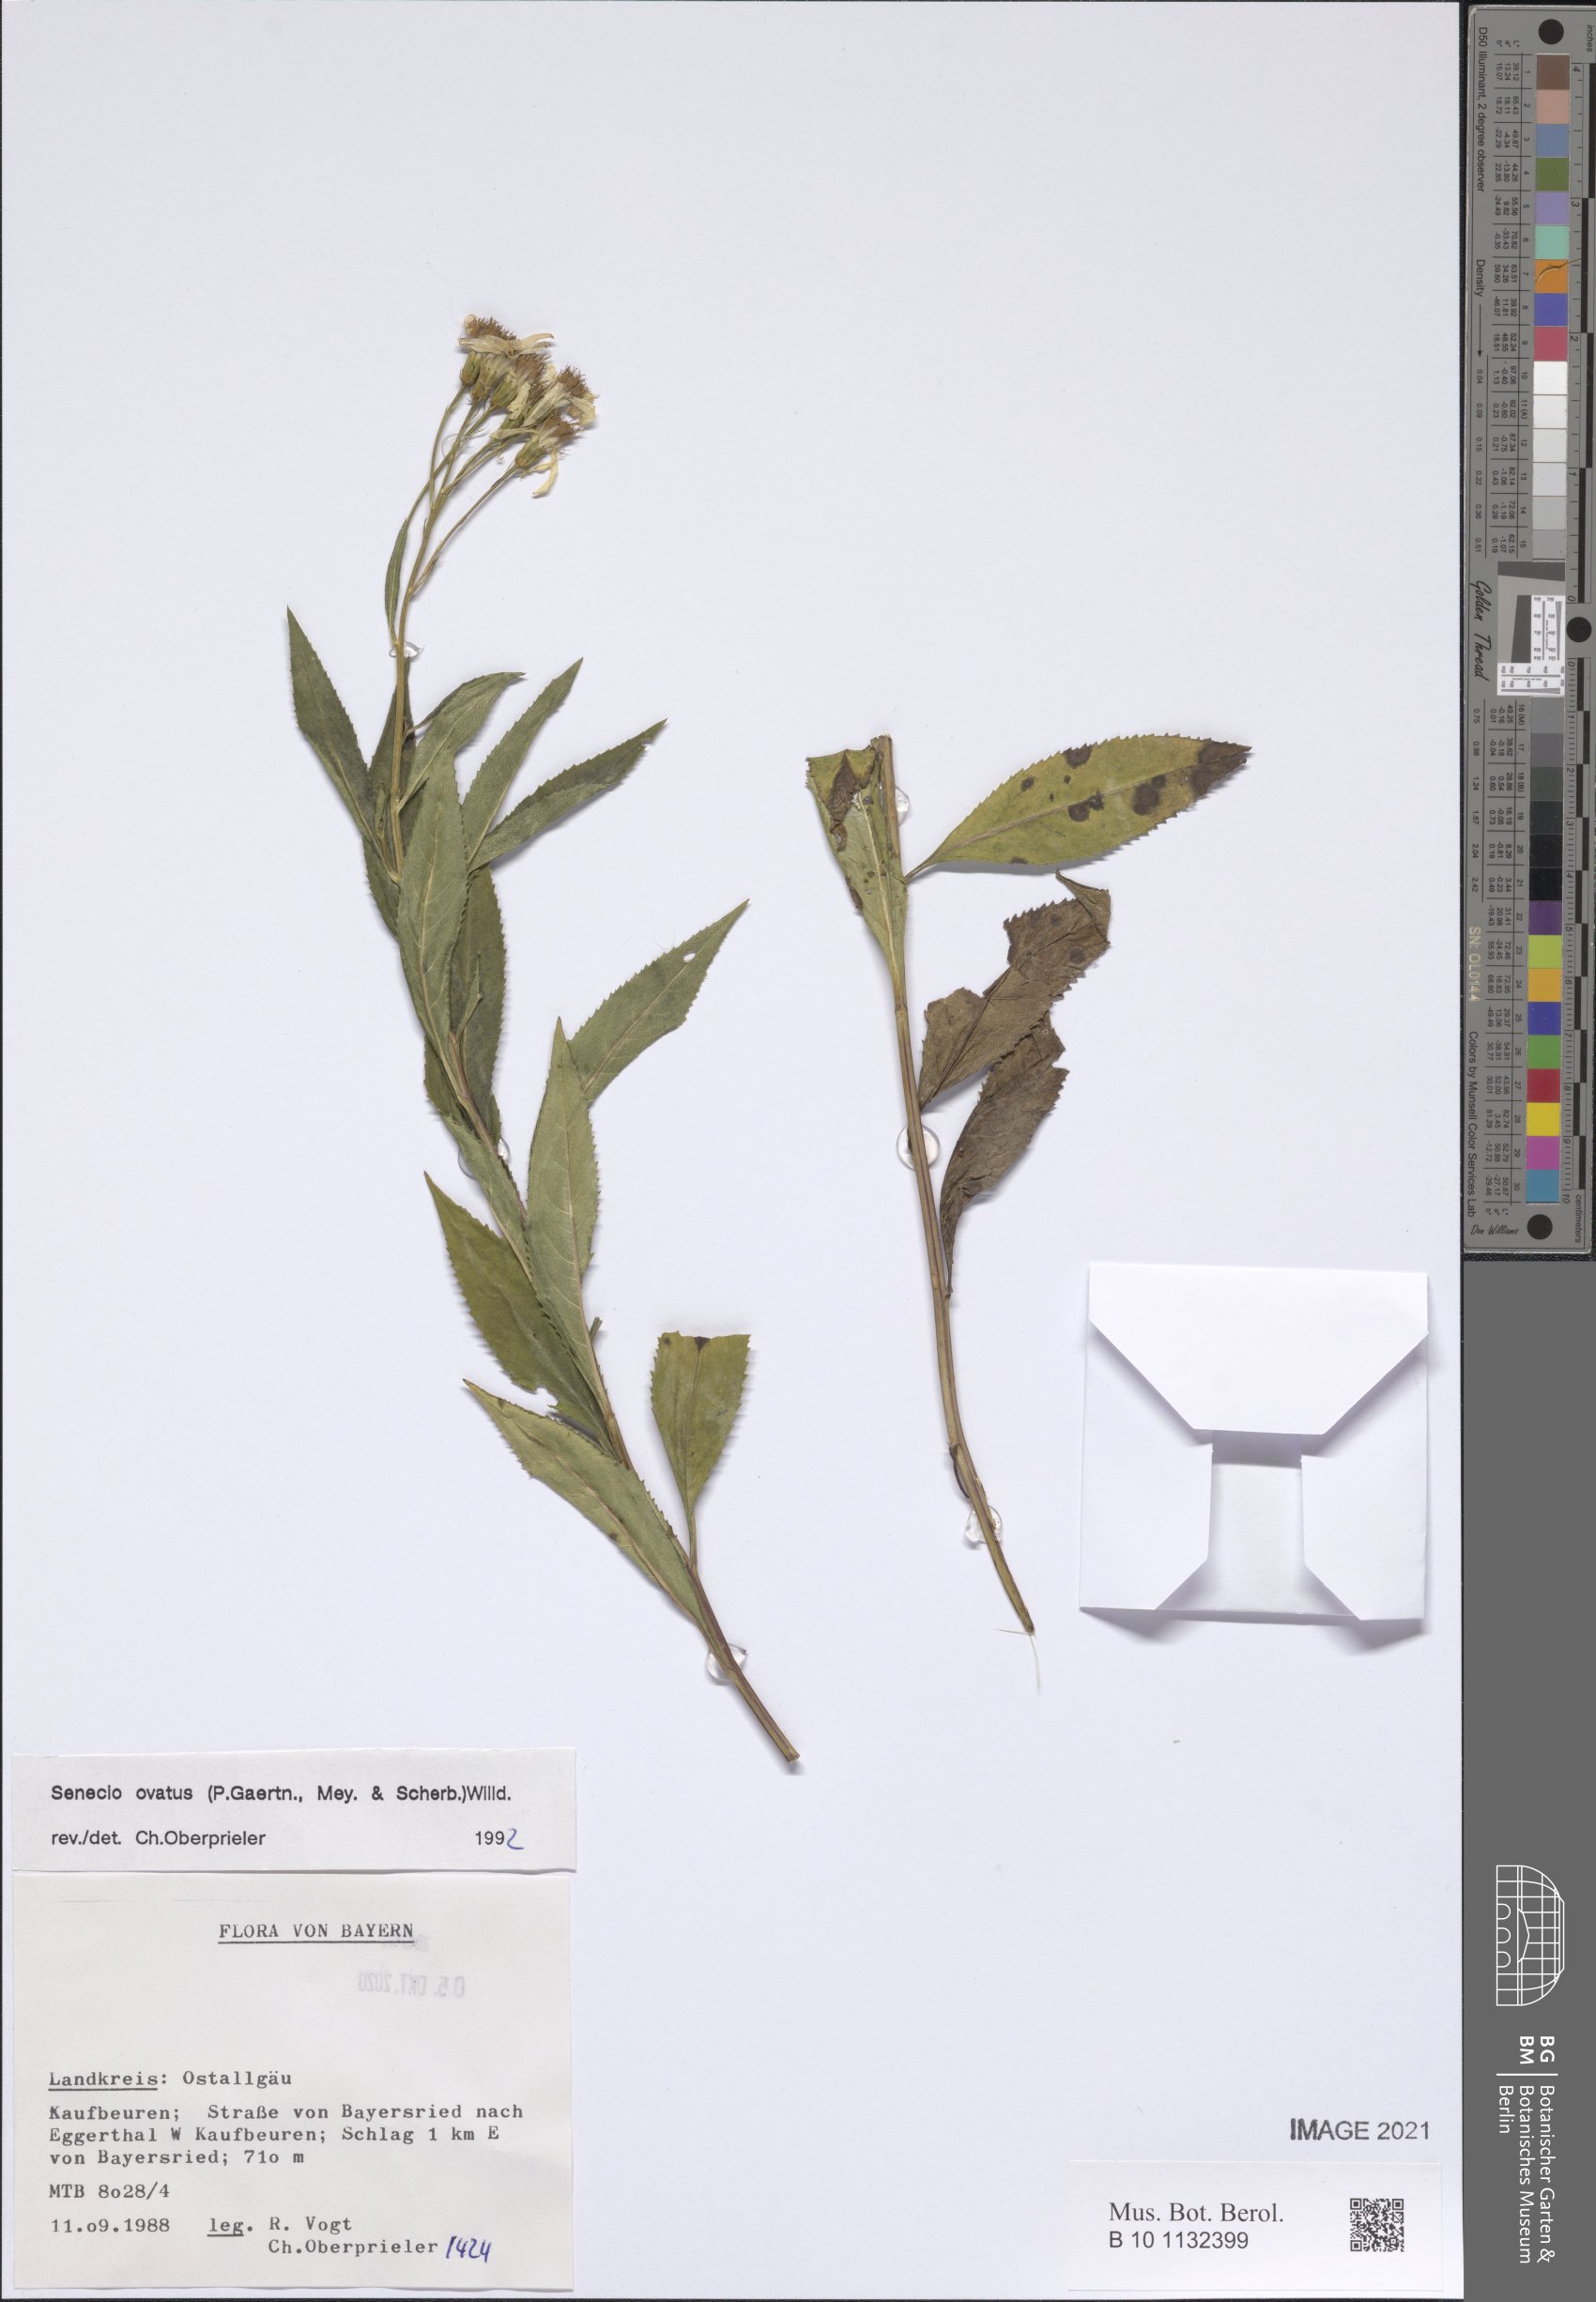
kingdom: Plantae
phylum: Tracheophyta
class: Magnoliopsida
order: Asterales
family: Asteraceae
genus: Senecio
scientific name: Senecio ovatus
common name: Wood ragwort
